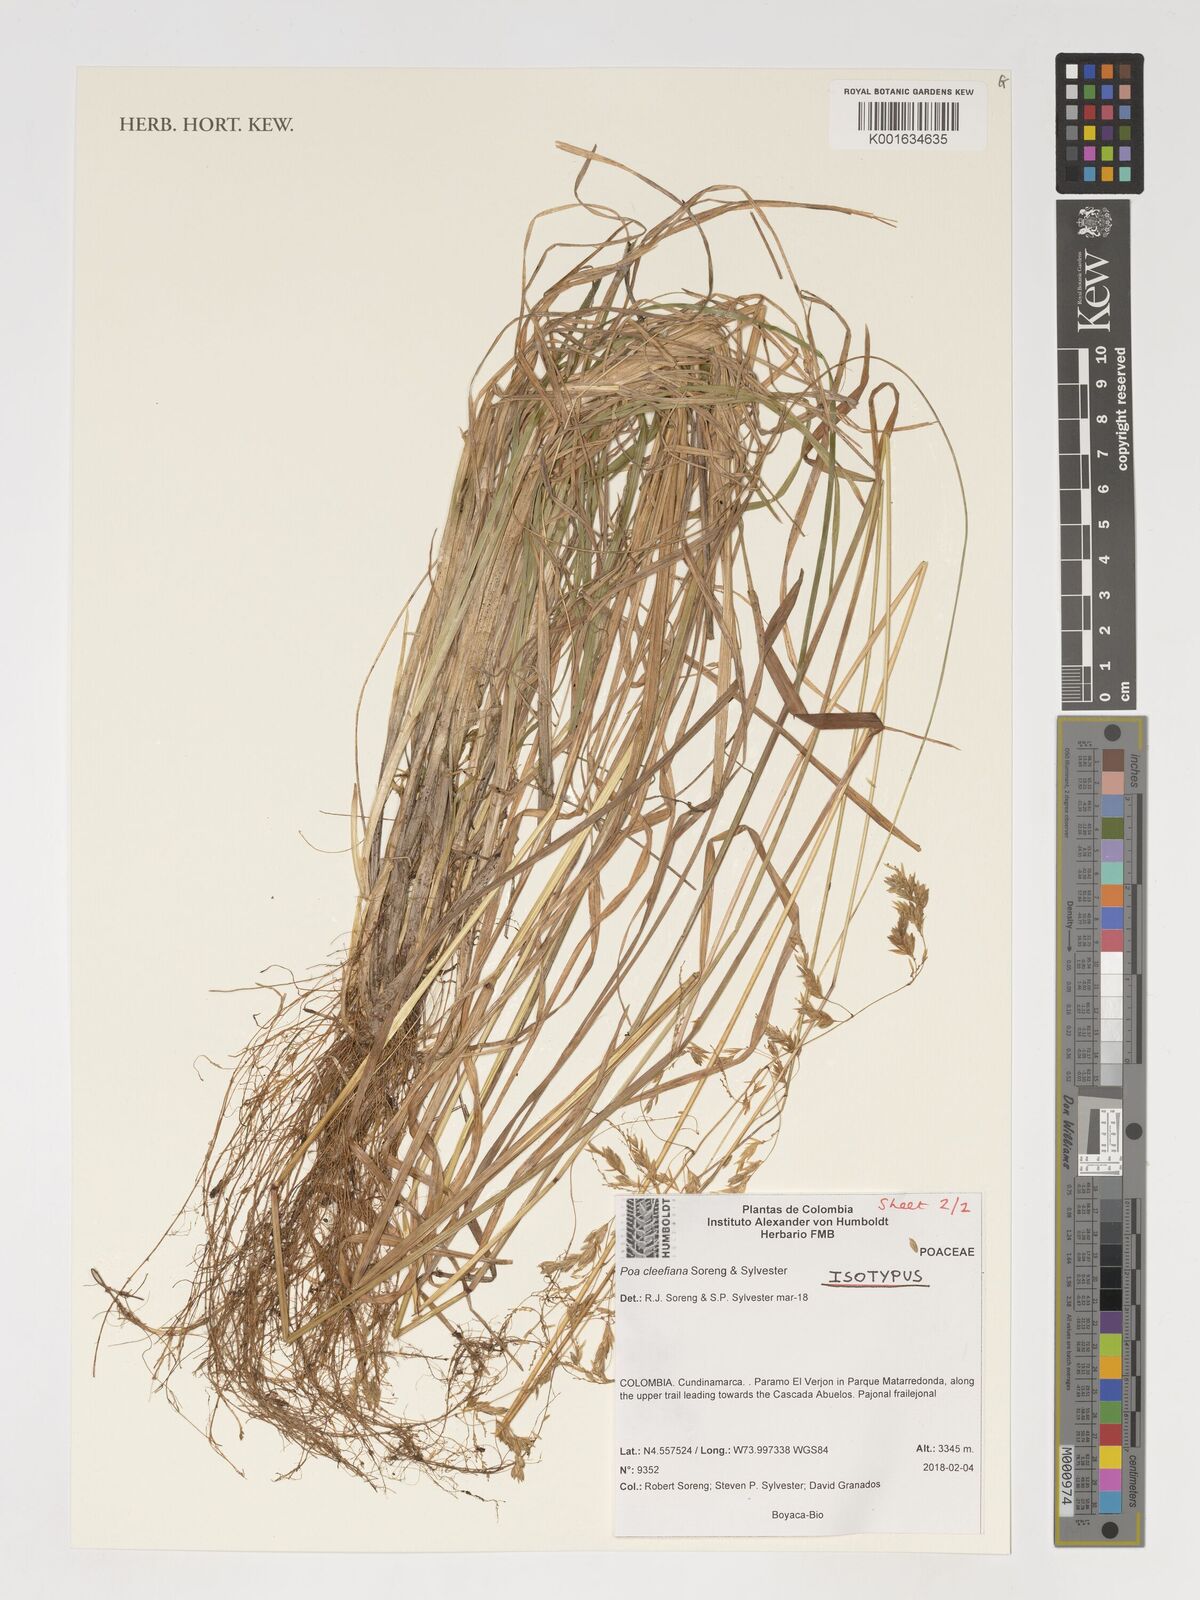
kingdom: Plantae
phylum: Tracheophyta
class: Liliopsida
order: Poales
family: Poaceae
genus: Poa
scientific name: Poa
